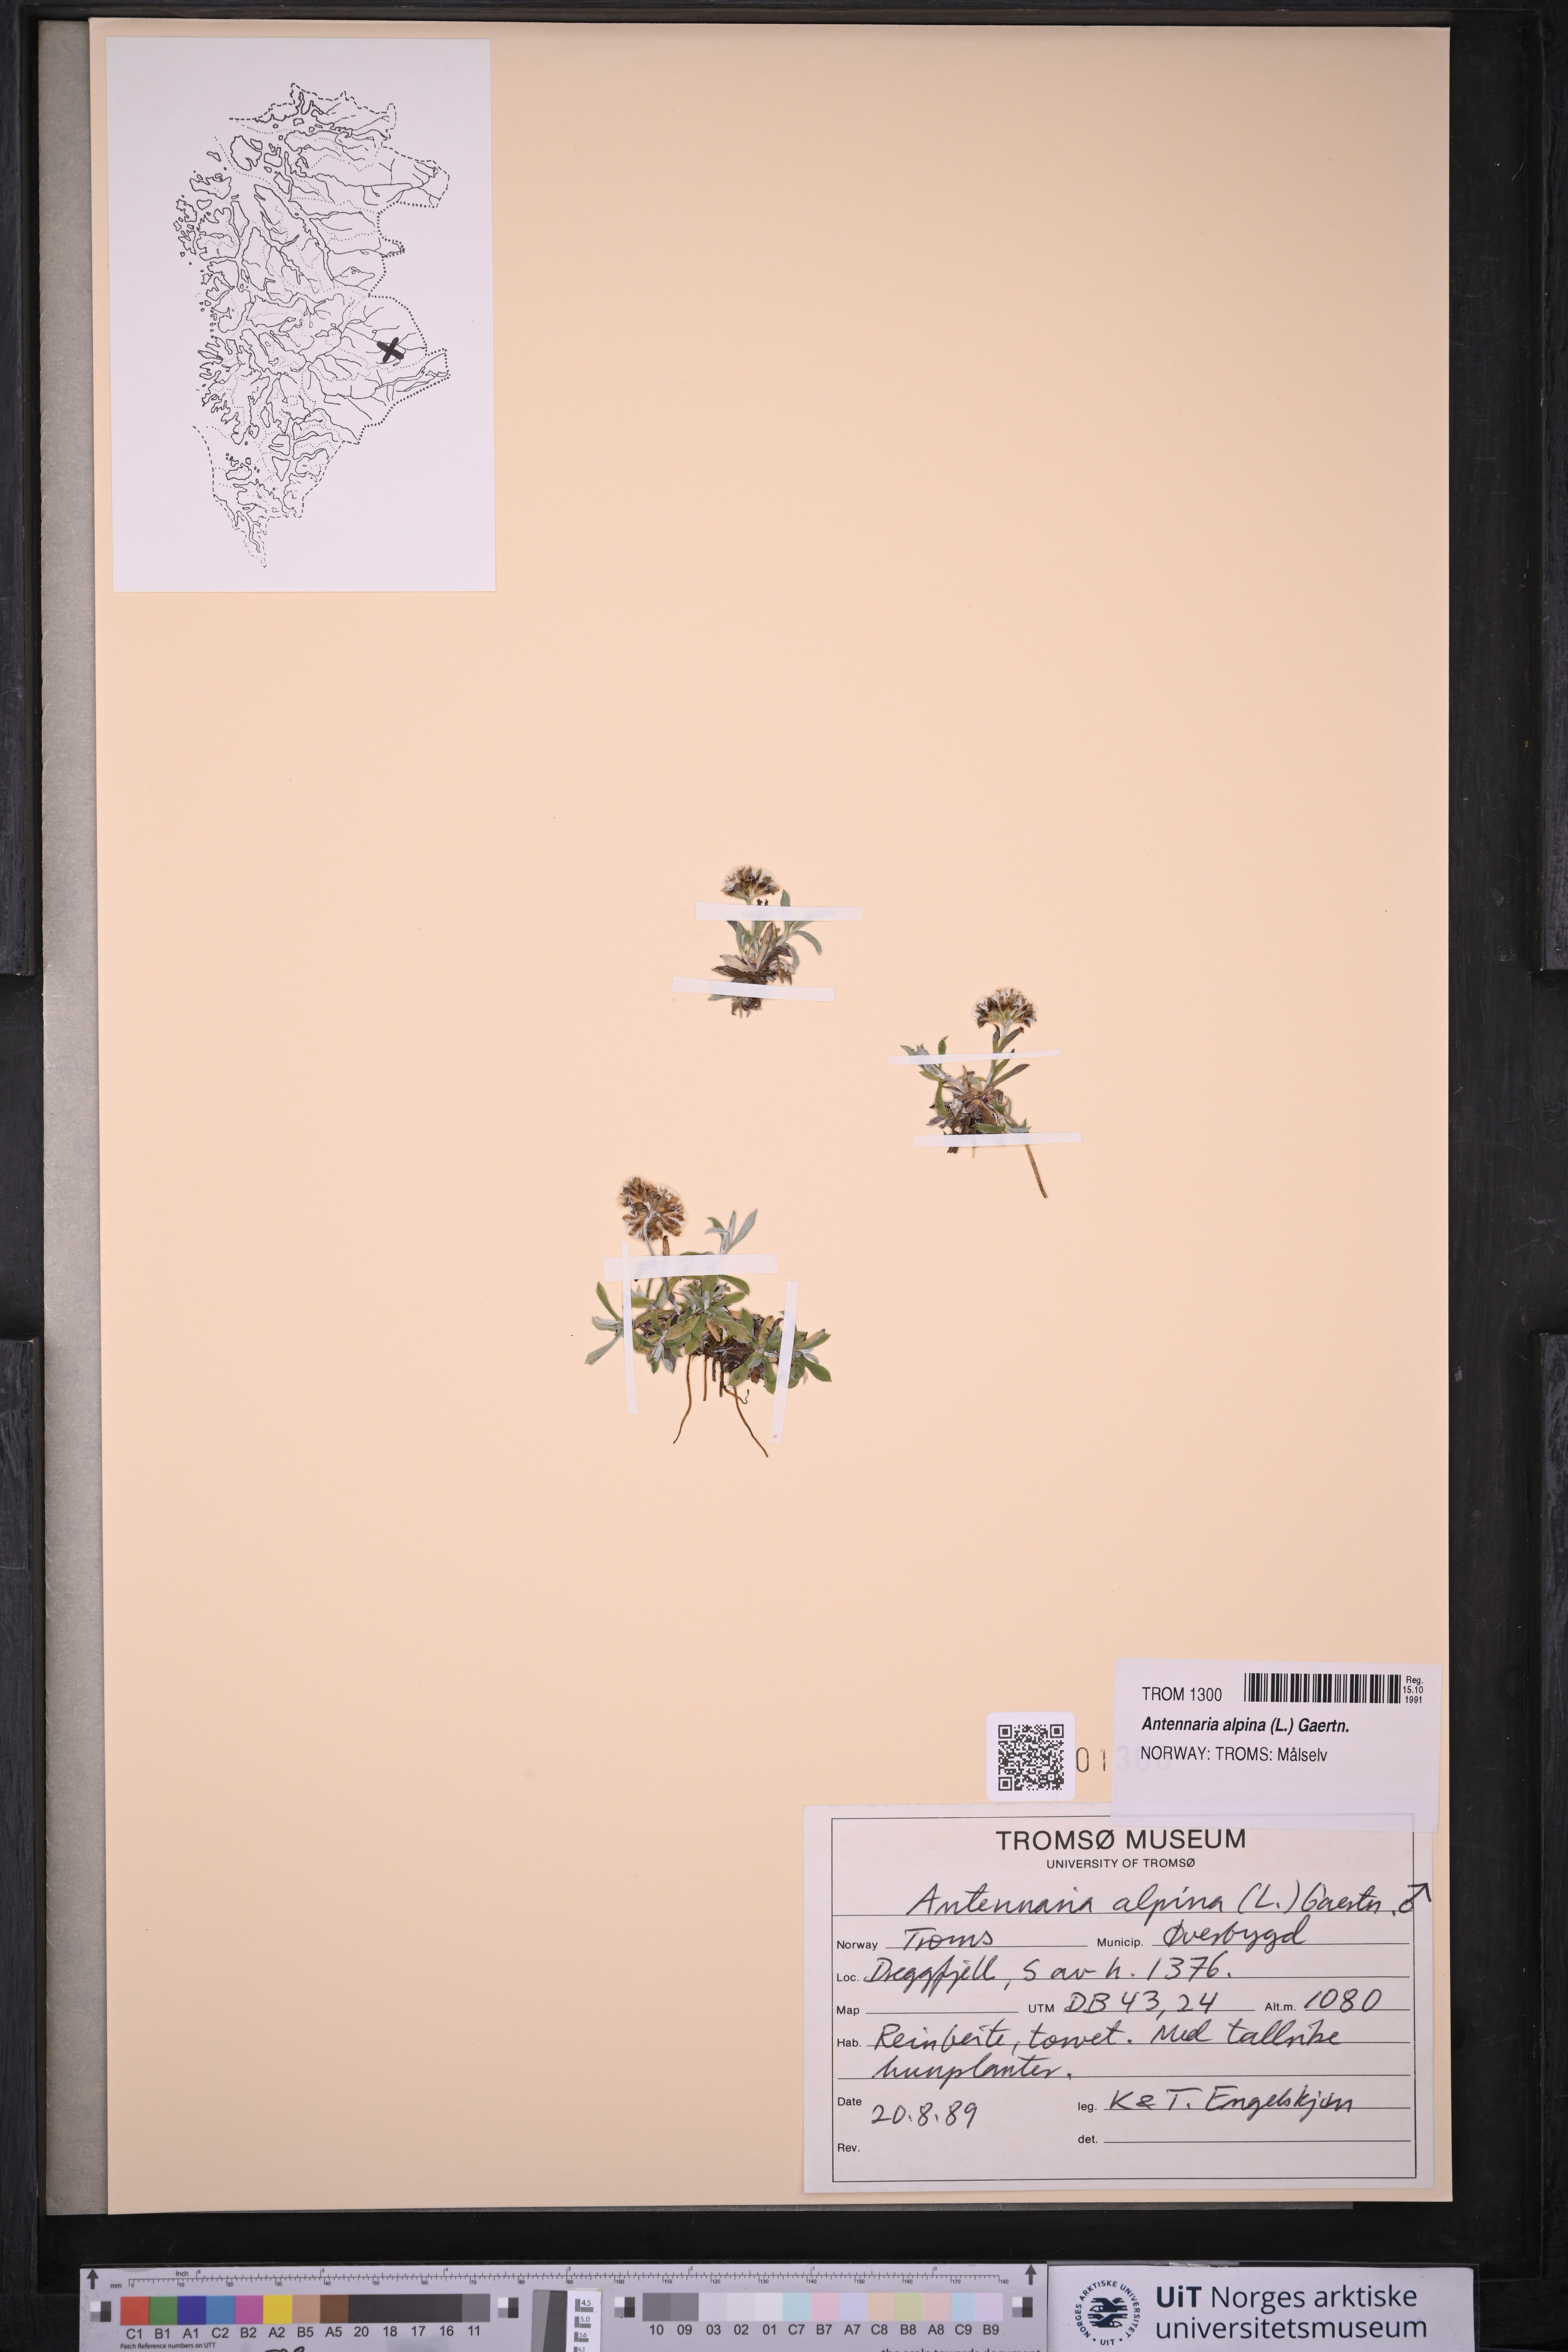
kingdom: Plantae
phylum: Tracheophyta
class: Magnoliopsida
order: Asterales
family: Asteraceae
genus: Antennaria
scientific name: Antennaria alpina
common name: Alpine pussytoes
